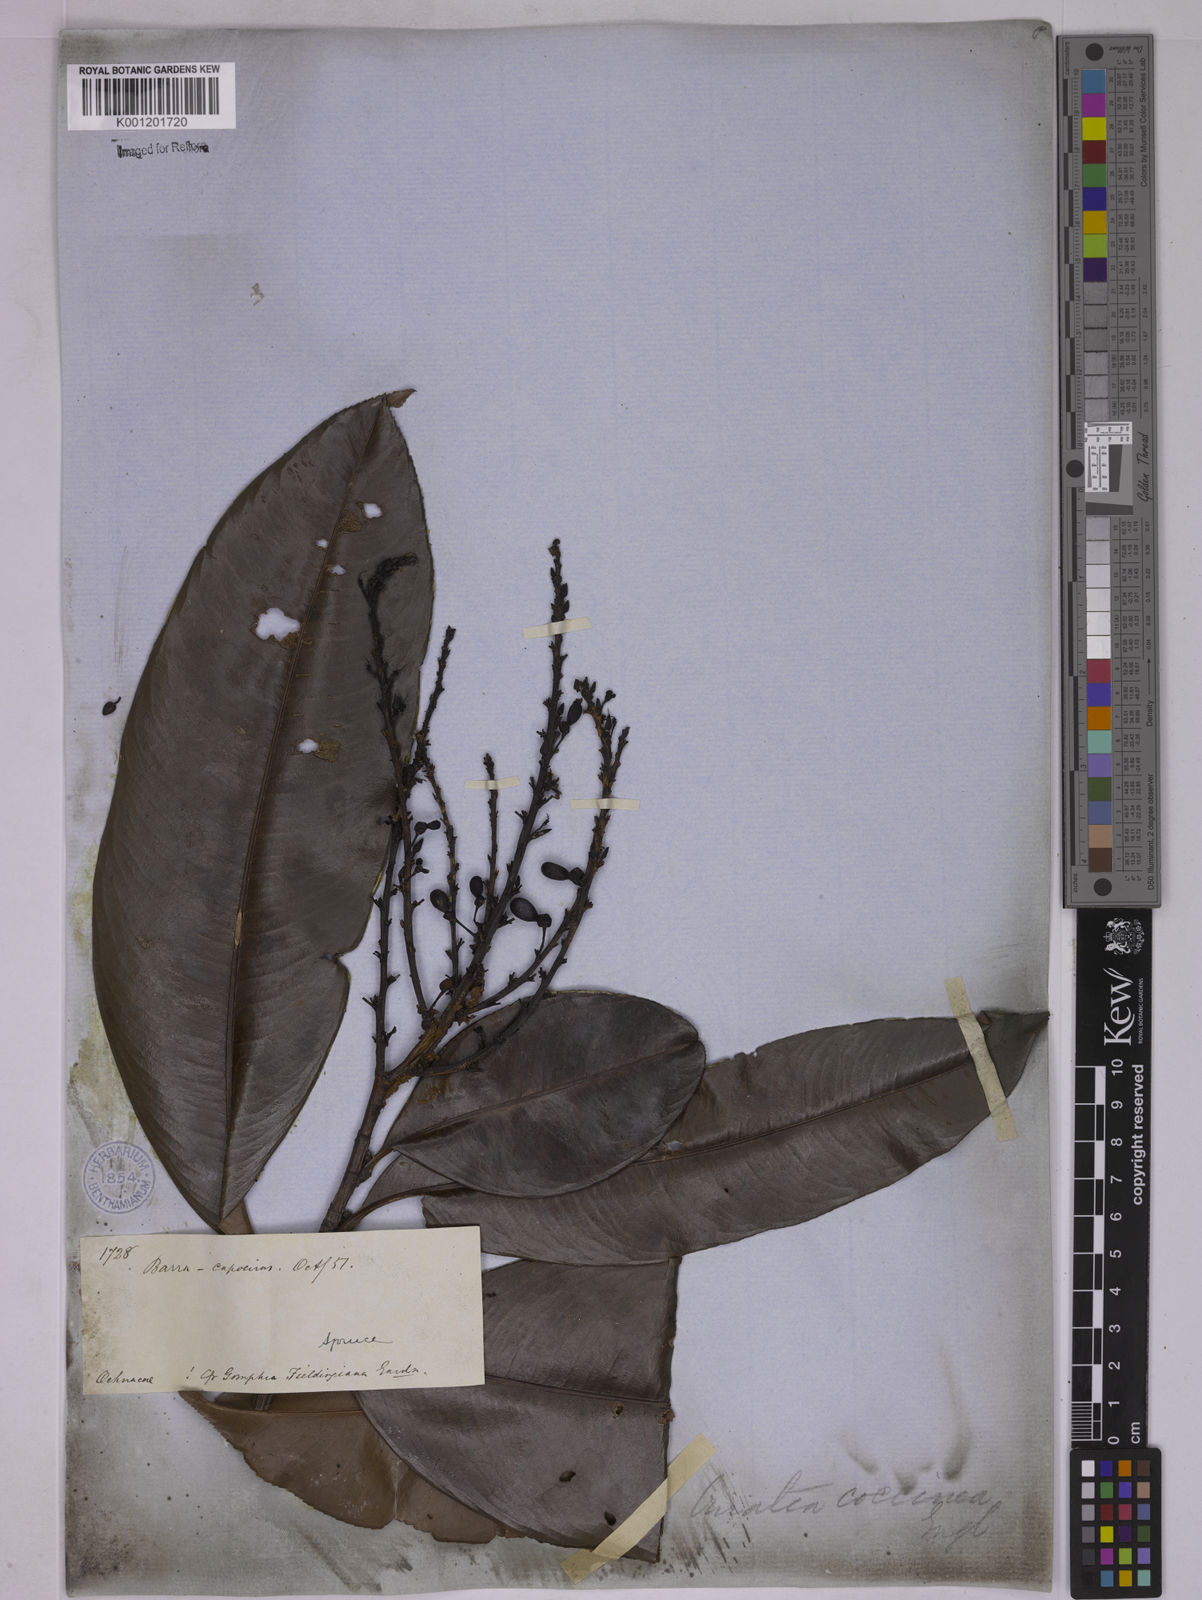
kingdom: Plantae
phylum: Tracheophyta
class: Magnoliopsida
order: Malpighiales
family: Ochnaceae
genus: Ouratea
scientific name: Ouratea coccinea
